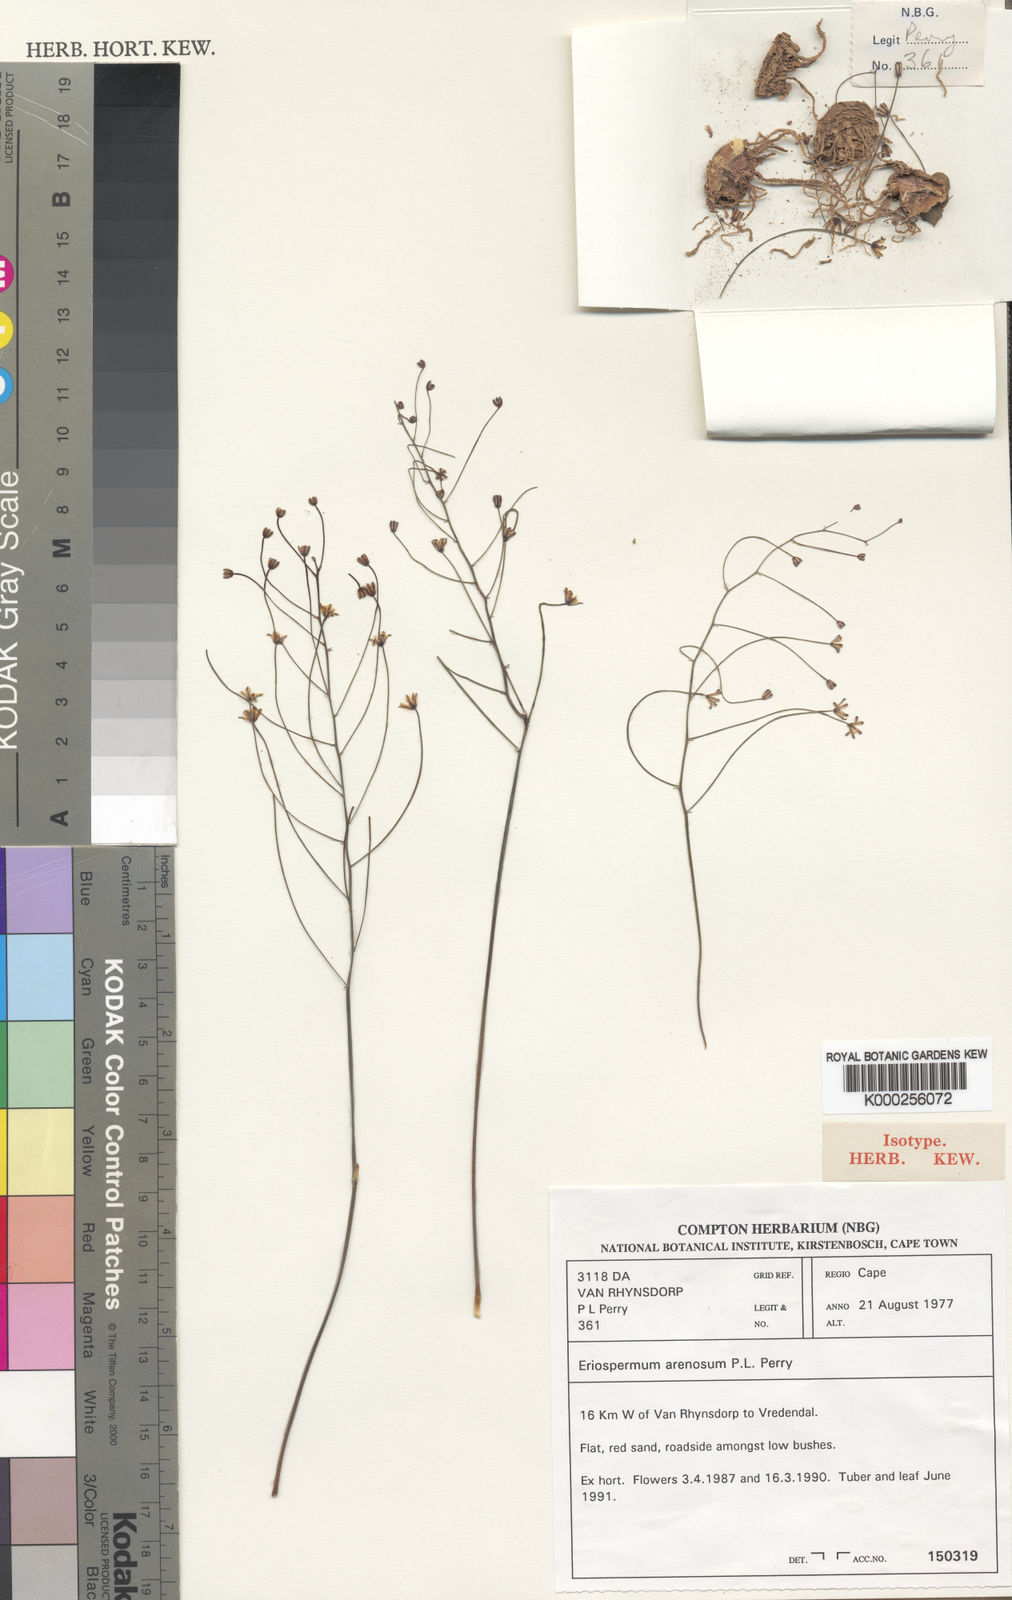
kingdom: Plantae
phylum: Tracheophyta
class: Liliopsida
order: Asparagales
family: Asparagaceae
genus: Eriospermum
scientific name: Eriospermum arenosum
